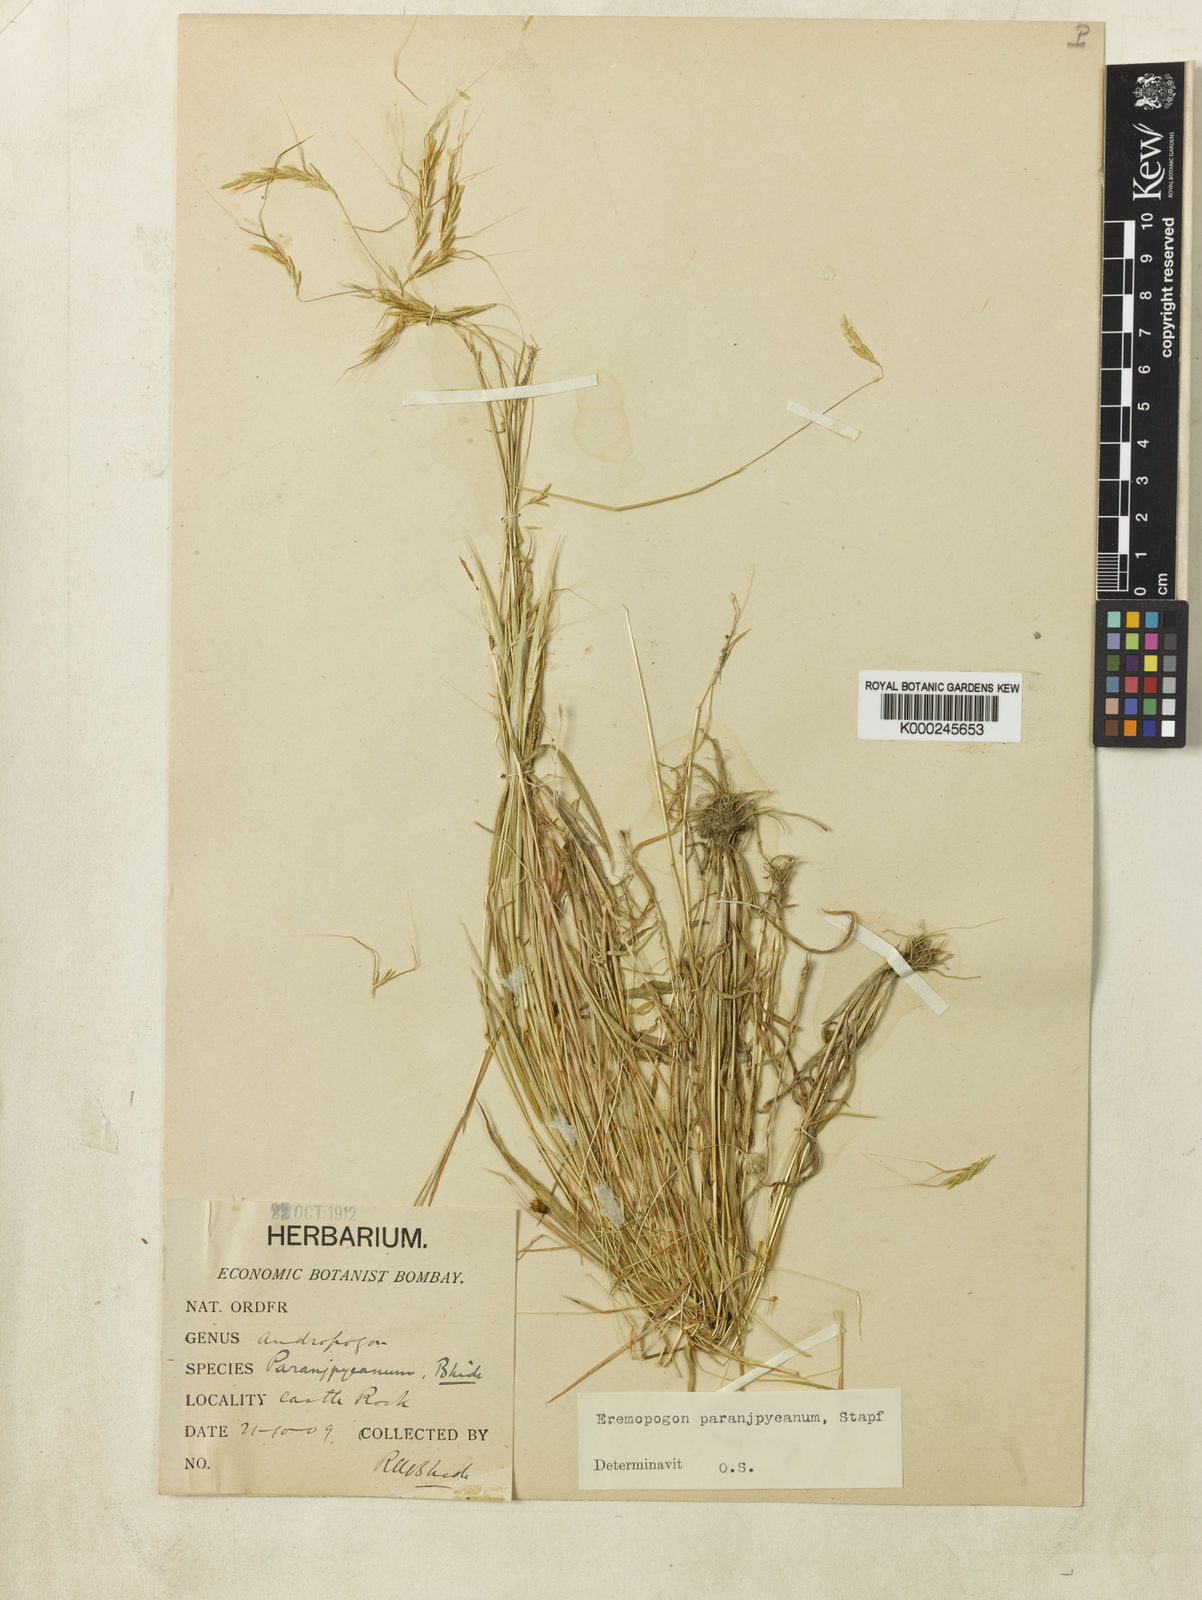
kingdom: Plantae
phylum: Tracheophyta
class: Liliopsida
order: Poales
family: Poaceae
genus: Dichanthium
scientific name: Dichanthium paranjpyeanum
